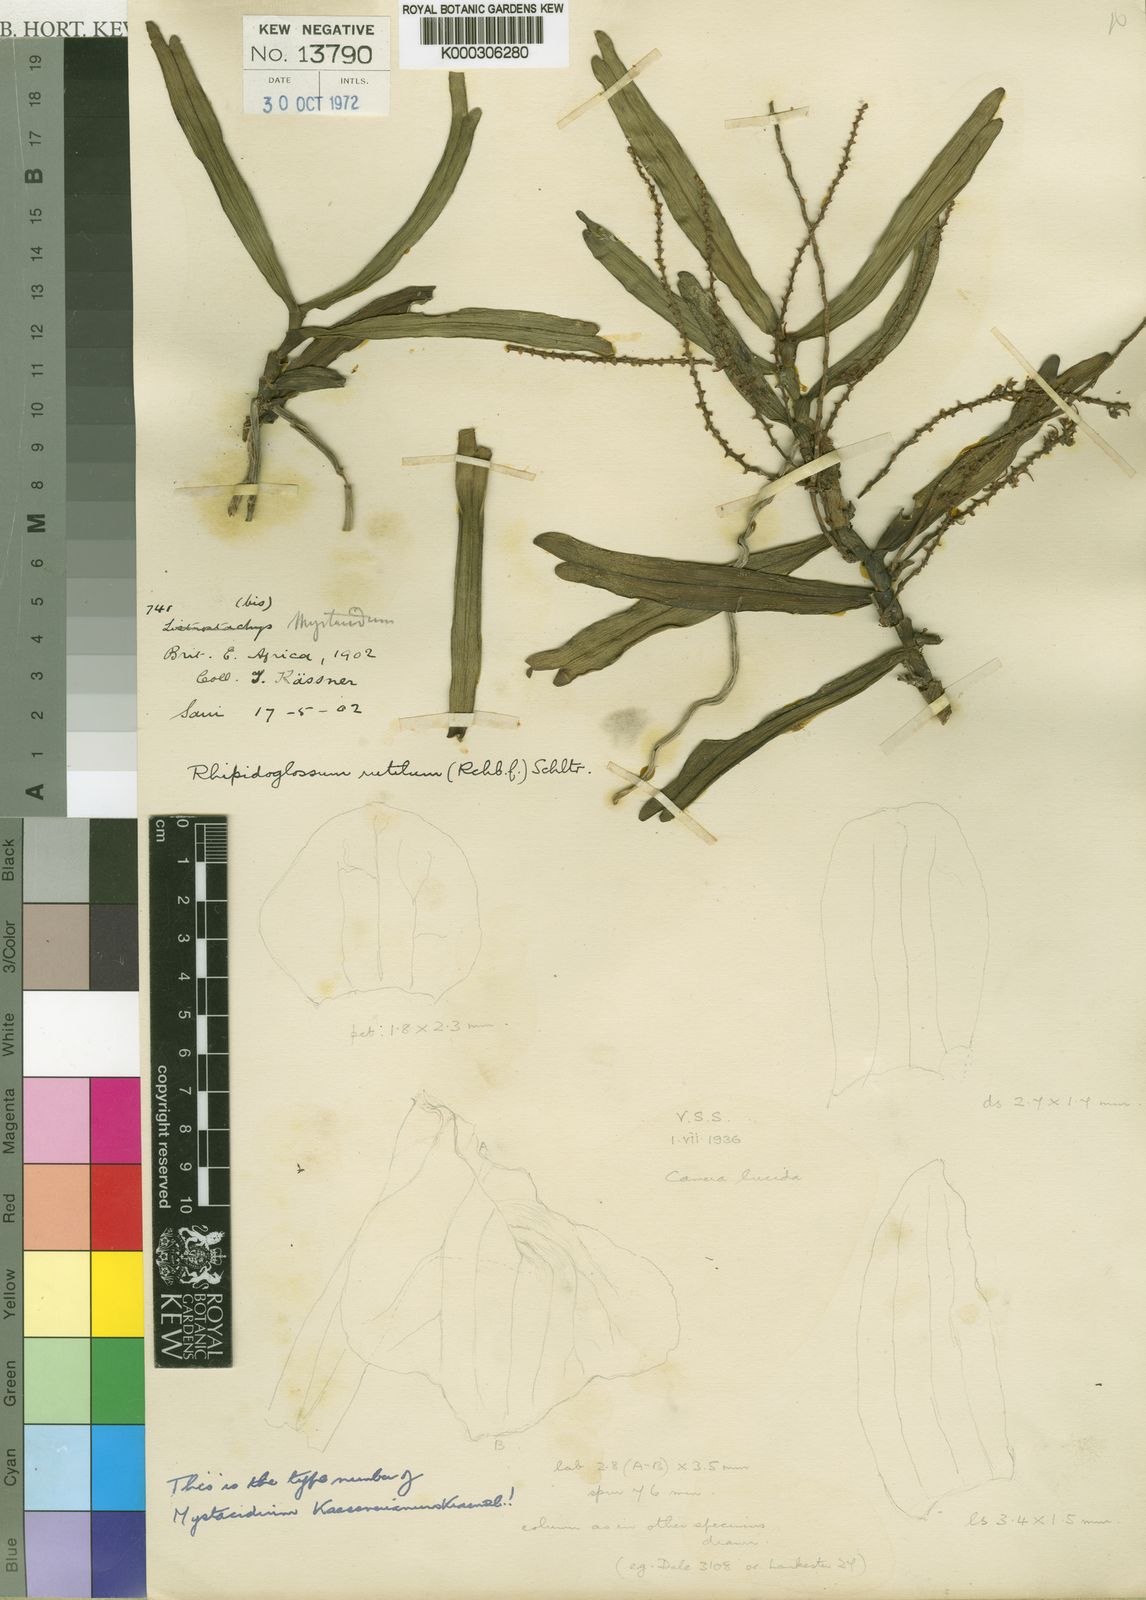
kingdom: Plantae
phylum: Tracheophyta
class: Liliopsida
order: Asparagales
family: Orchidaceae
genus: Rhipidoglossum
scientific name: Rhipidoglossum rutilum
